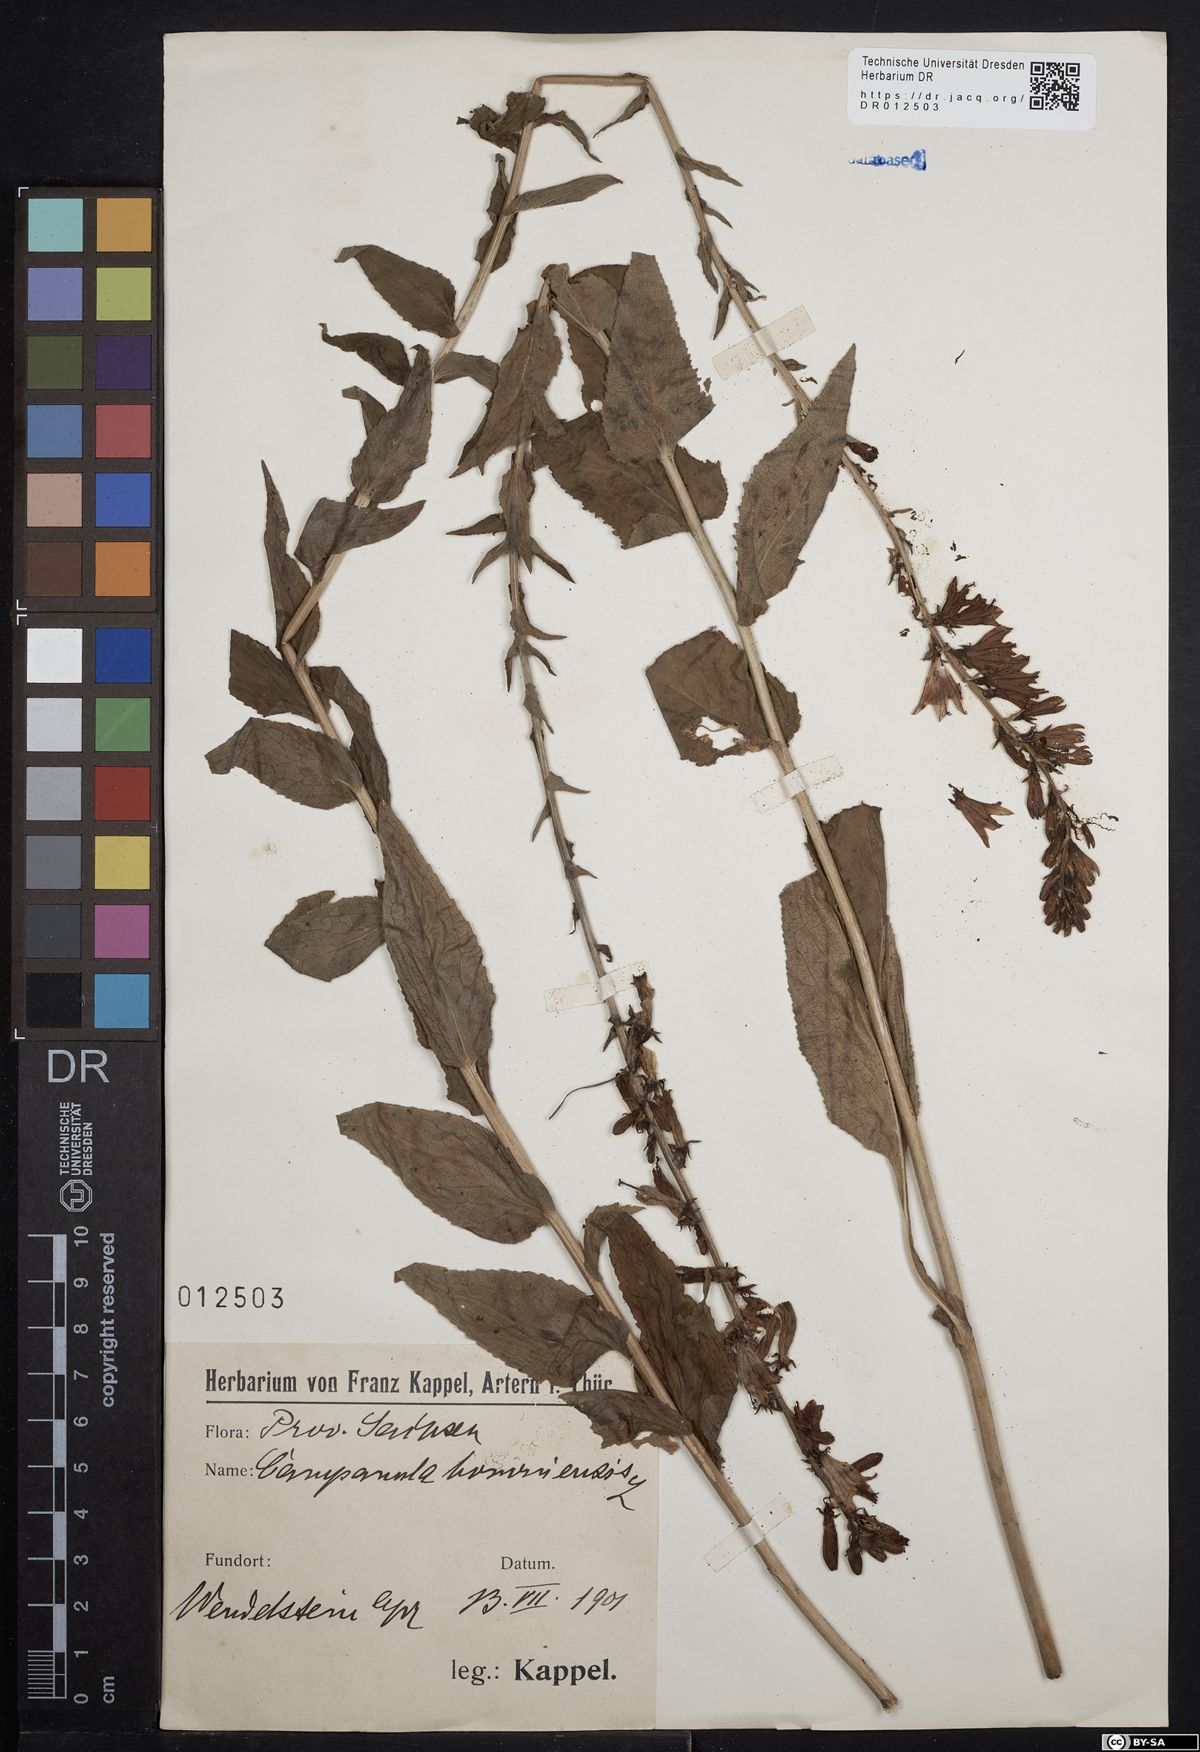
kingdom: Plantae
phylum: Tracheophyta
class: Magnoliopsida
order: Asterales
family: Campanulaceae
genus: Campanula
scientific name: Campanula bononiensis
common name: Pale bellflower
